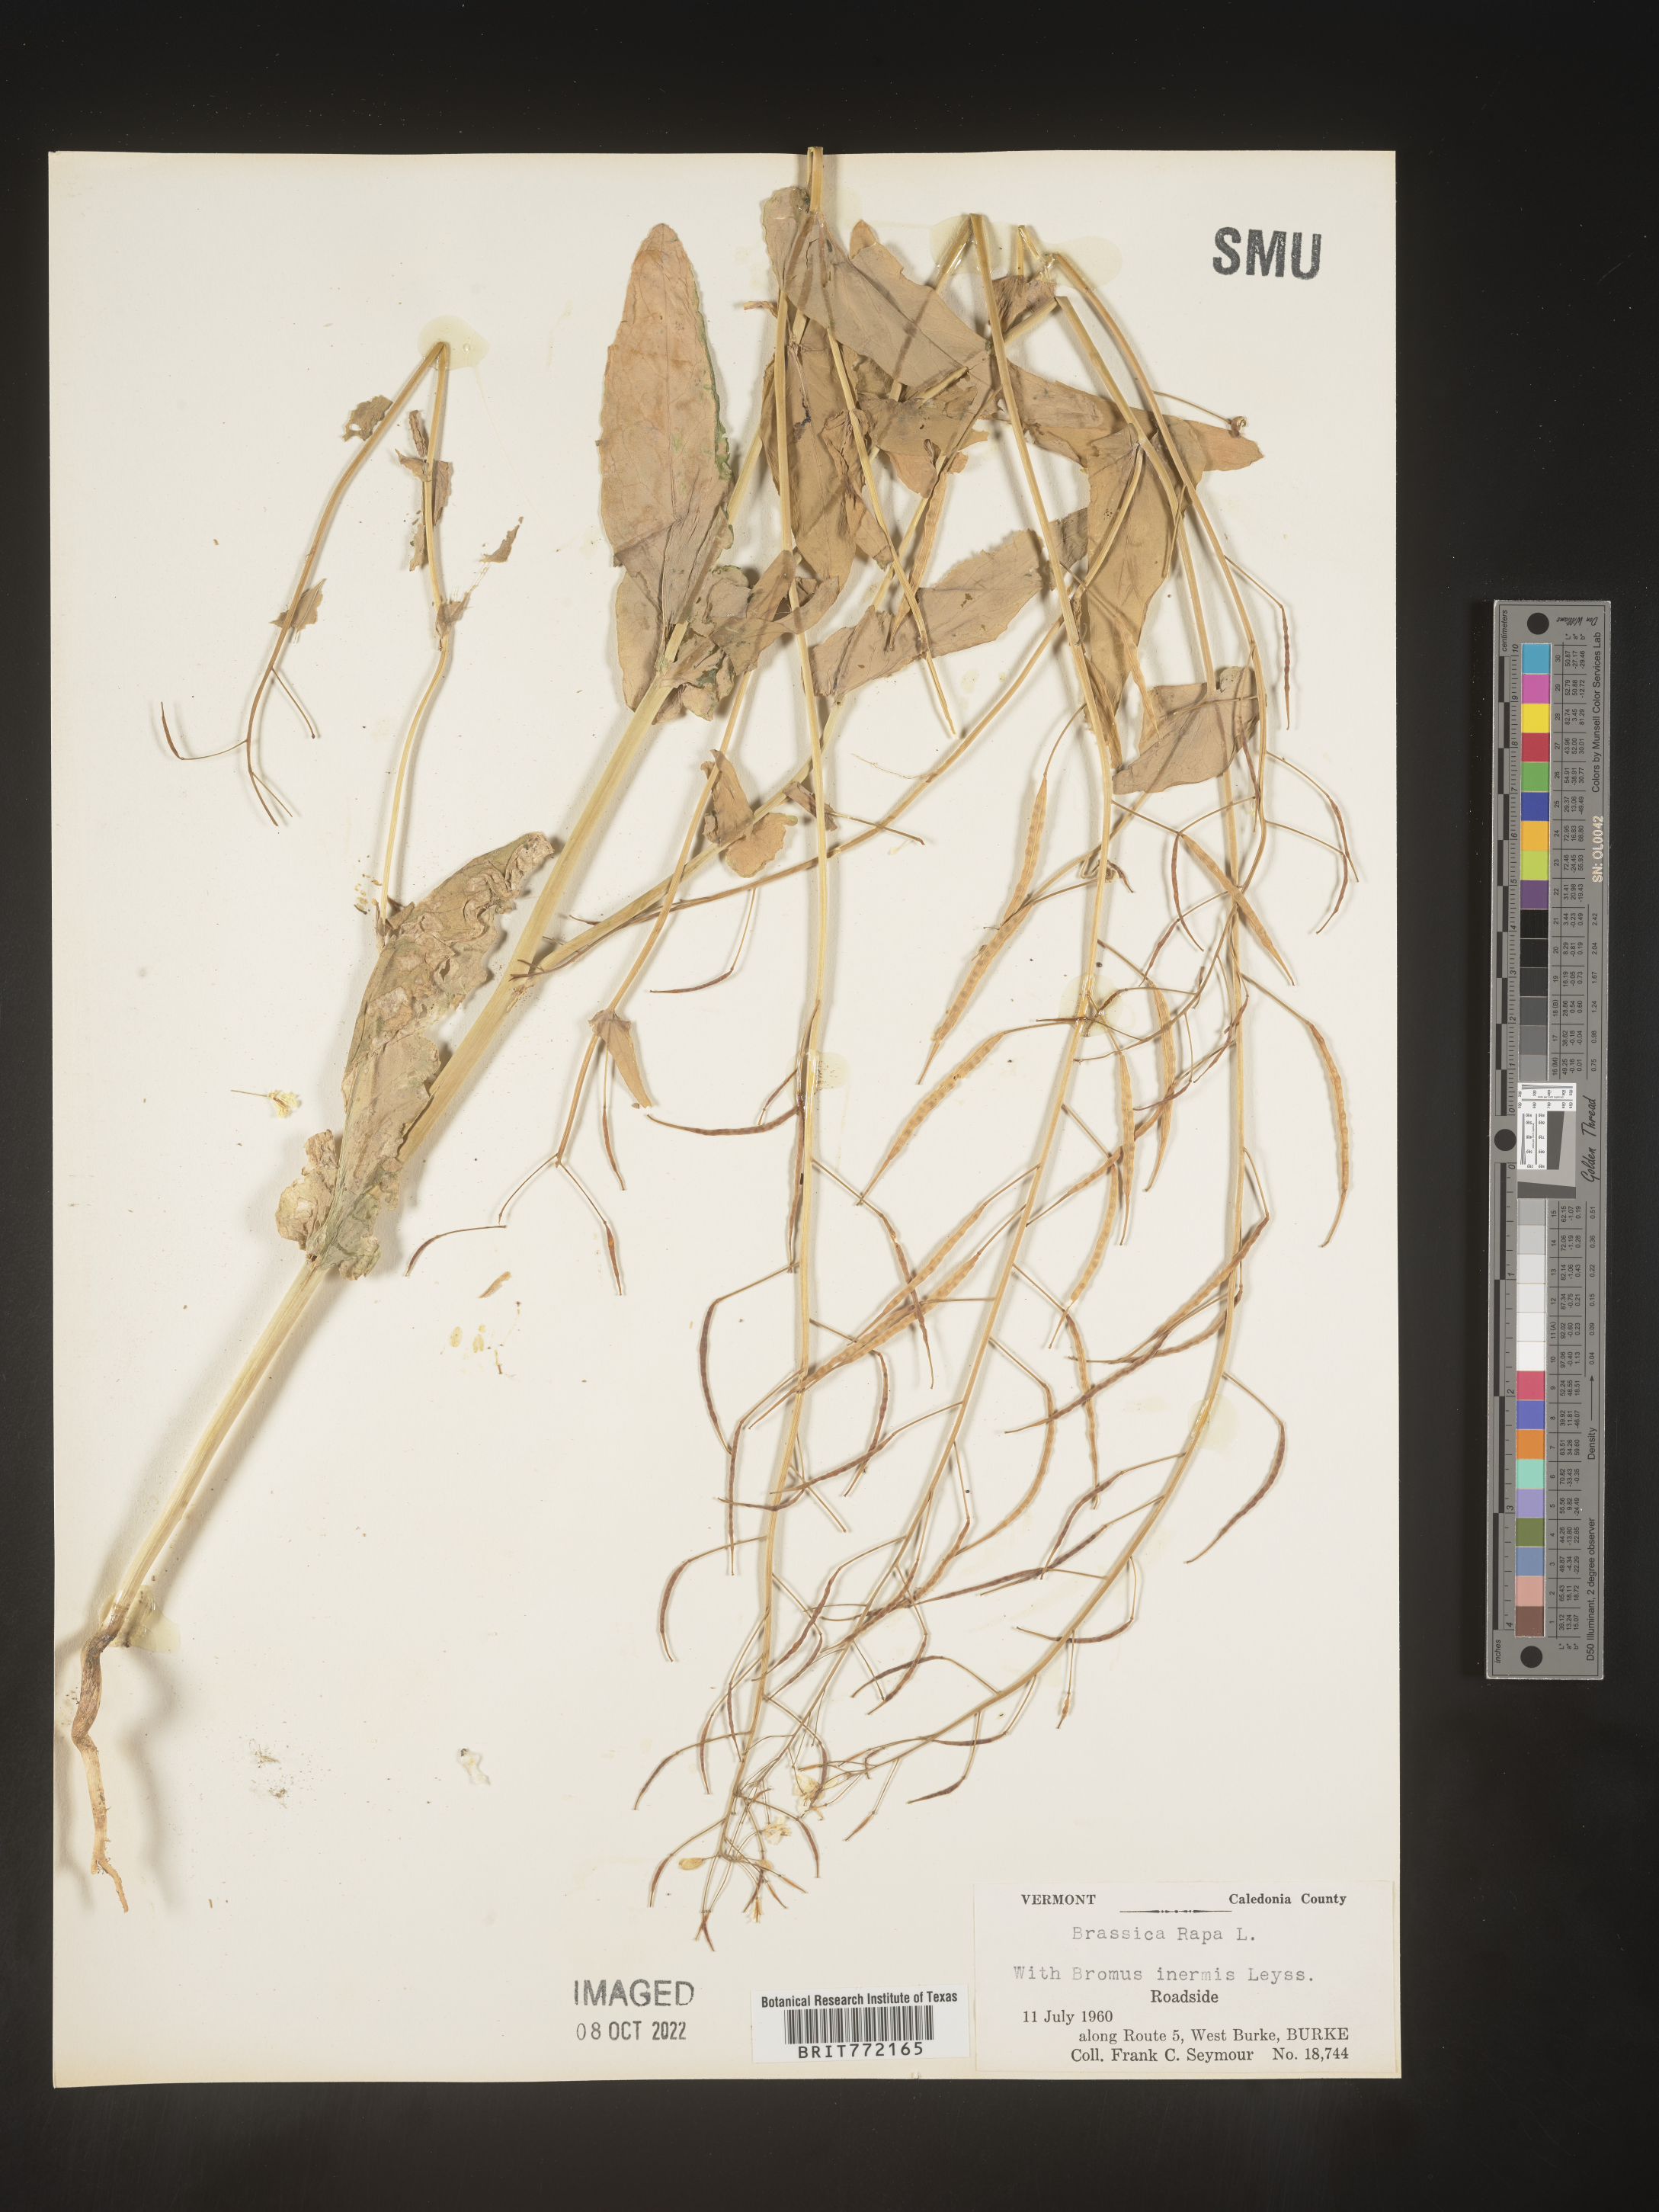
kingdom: Plantae
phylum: Tracheophyta
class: Magnoliopsida
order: Brassicales
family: Brassicaceae
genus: Brassica
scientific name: Brassica rapa
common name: Field mustard
